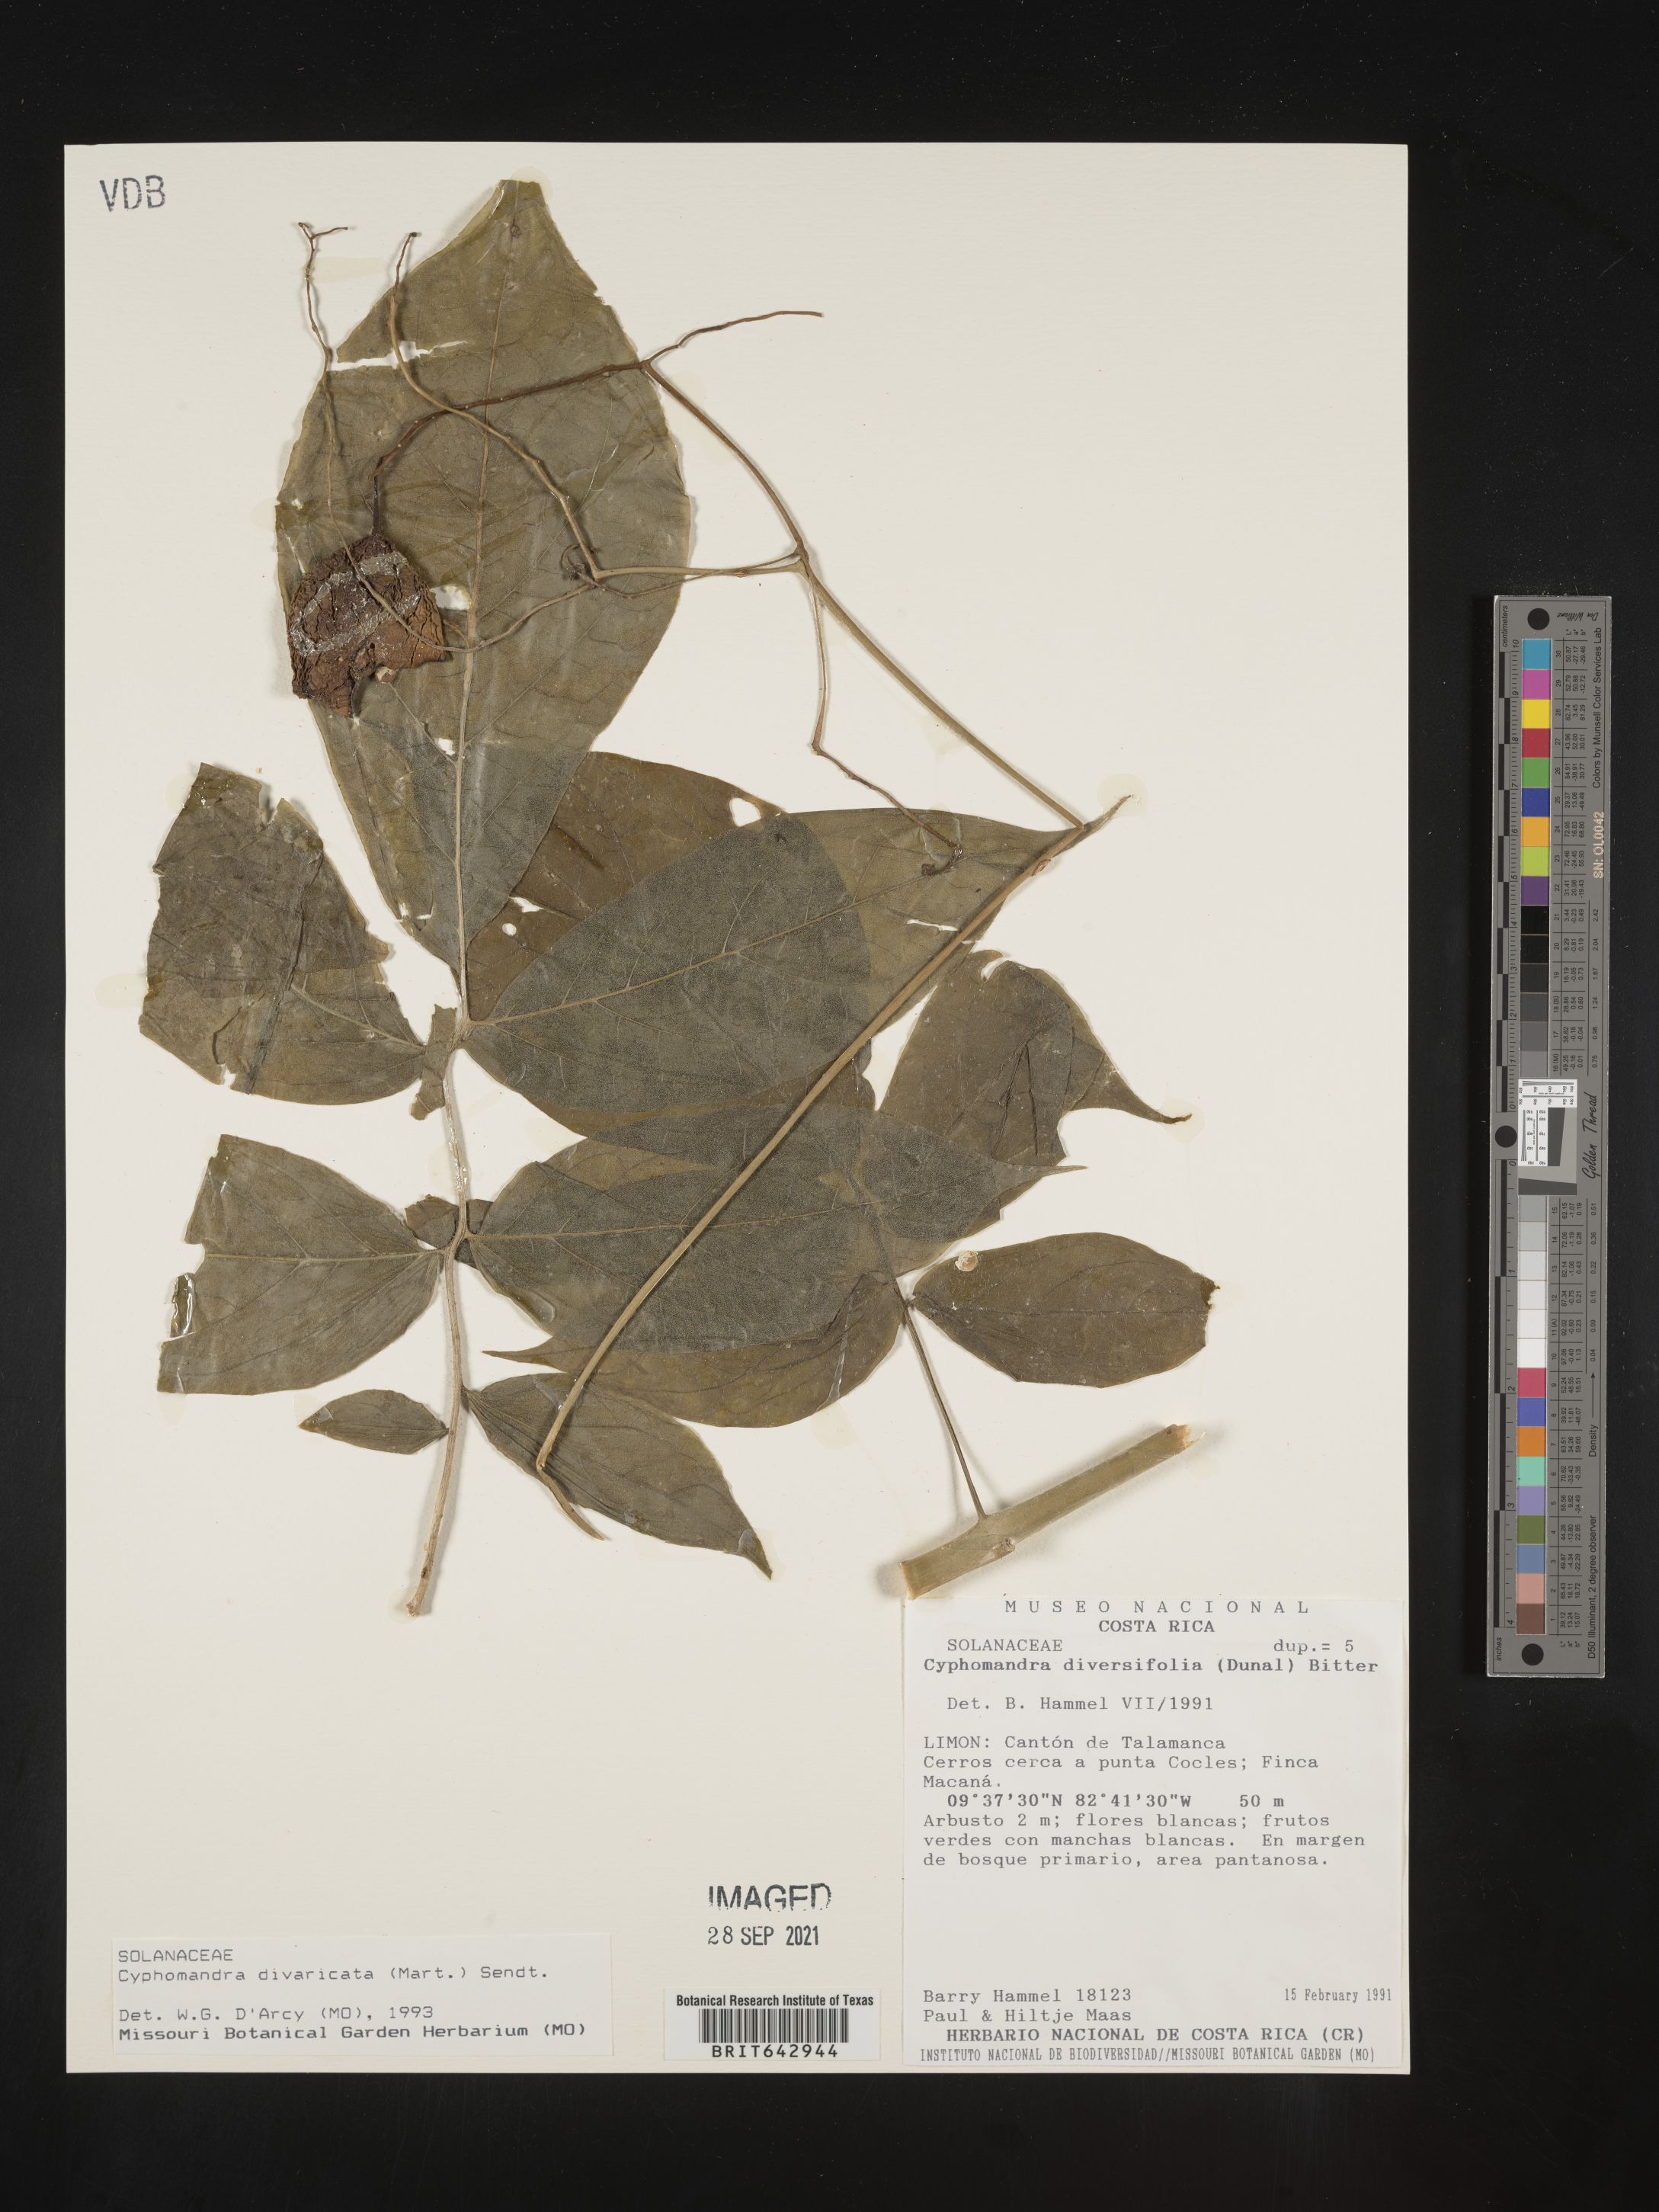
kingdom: Plantae
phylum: Tracheophyta
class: Magnoliopsida
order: Solanales
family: Solanaceae
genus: Solanum
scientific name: Solanum
